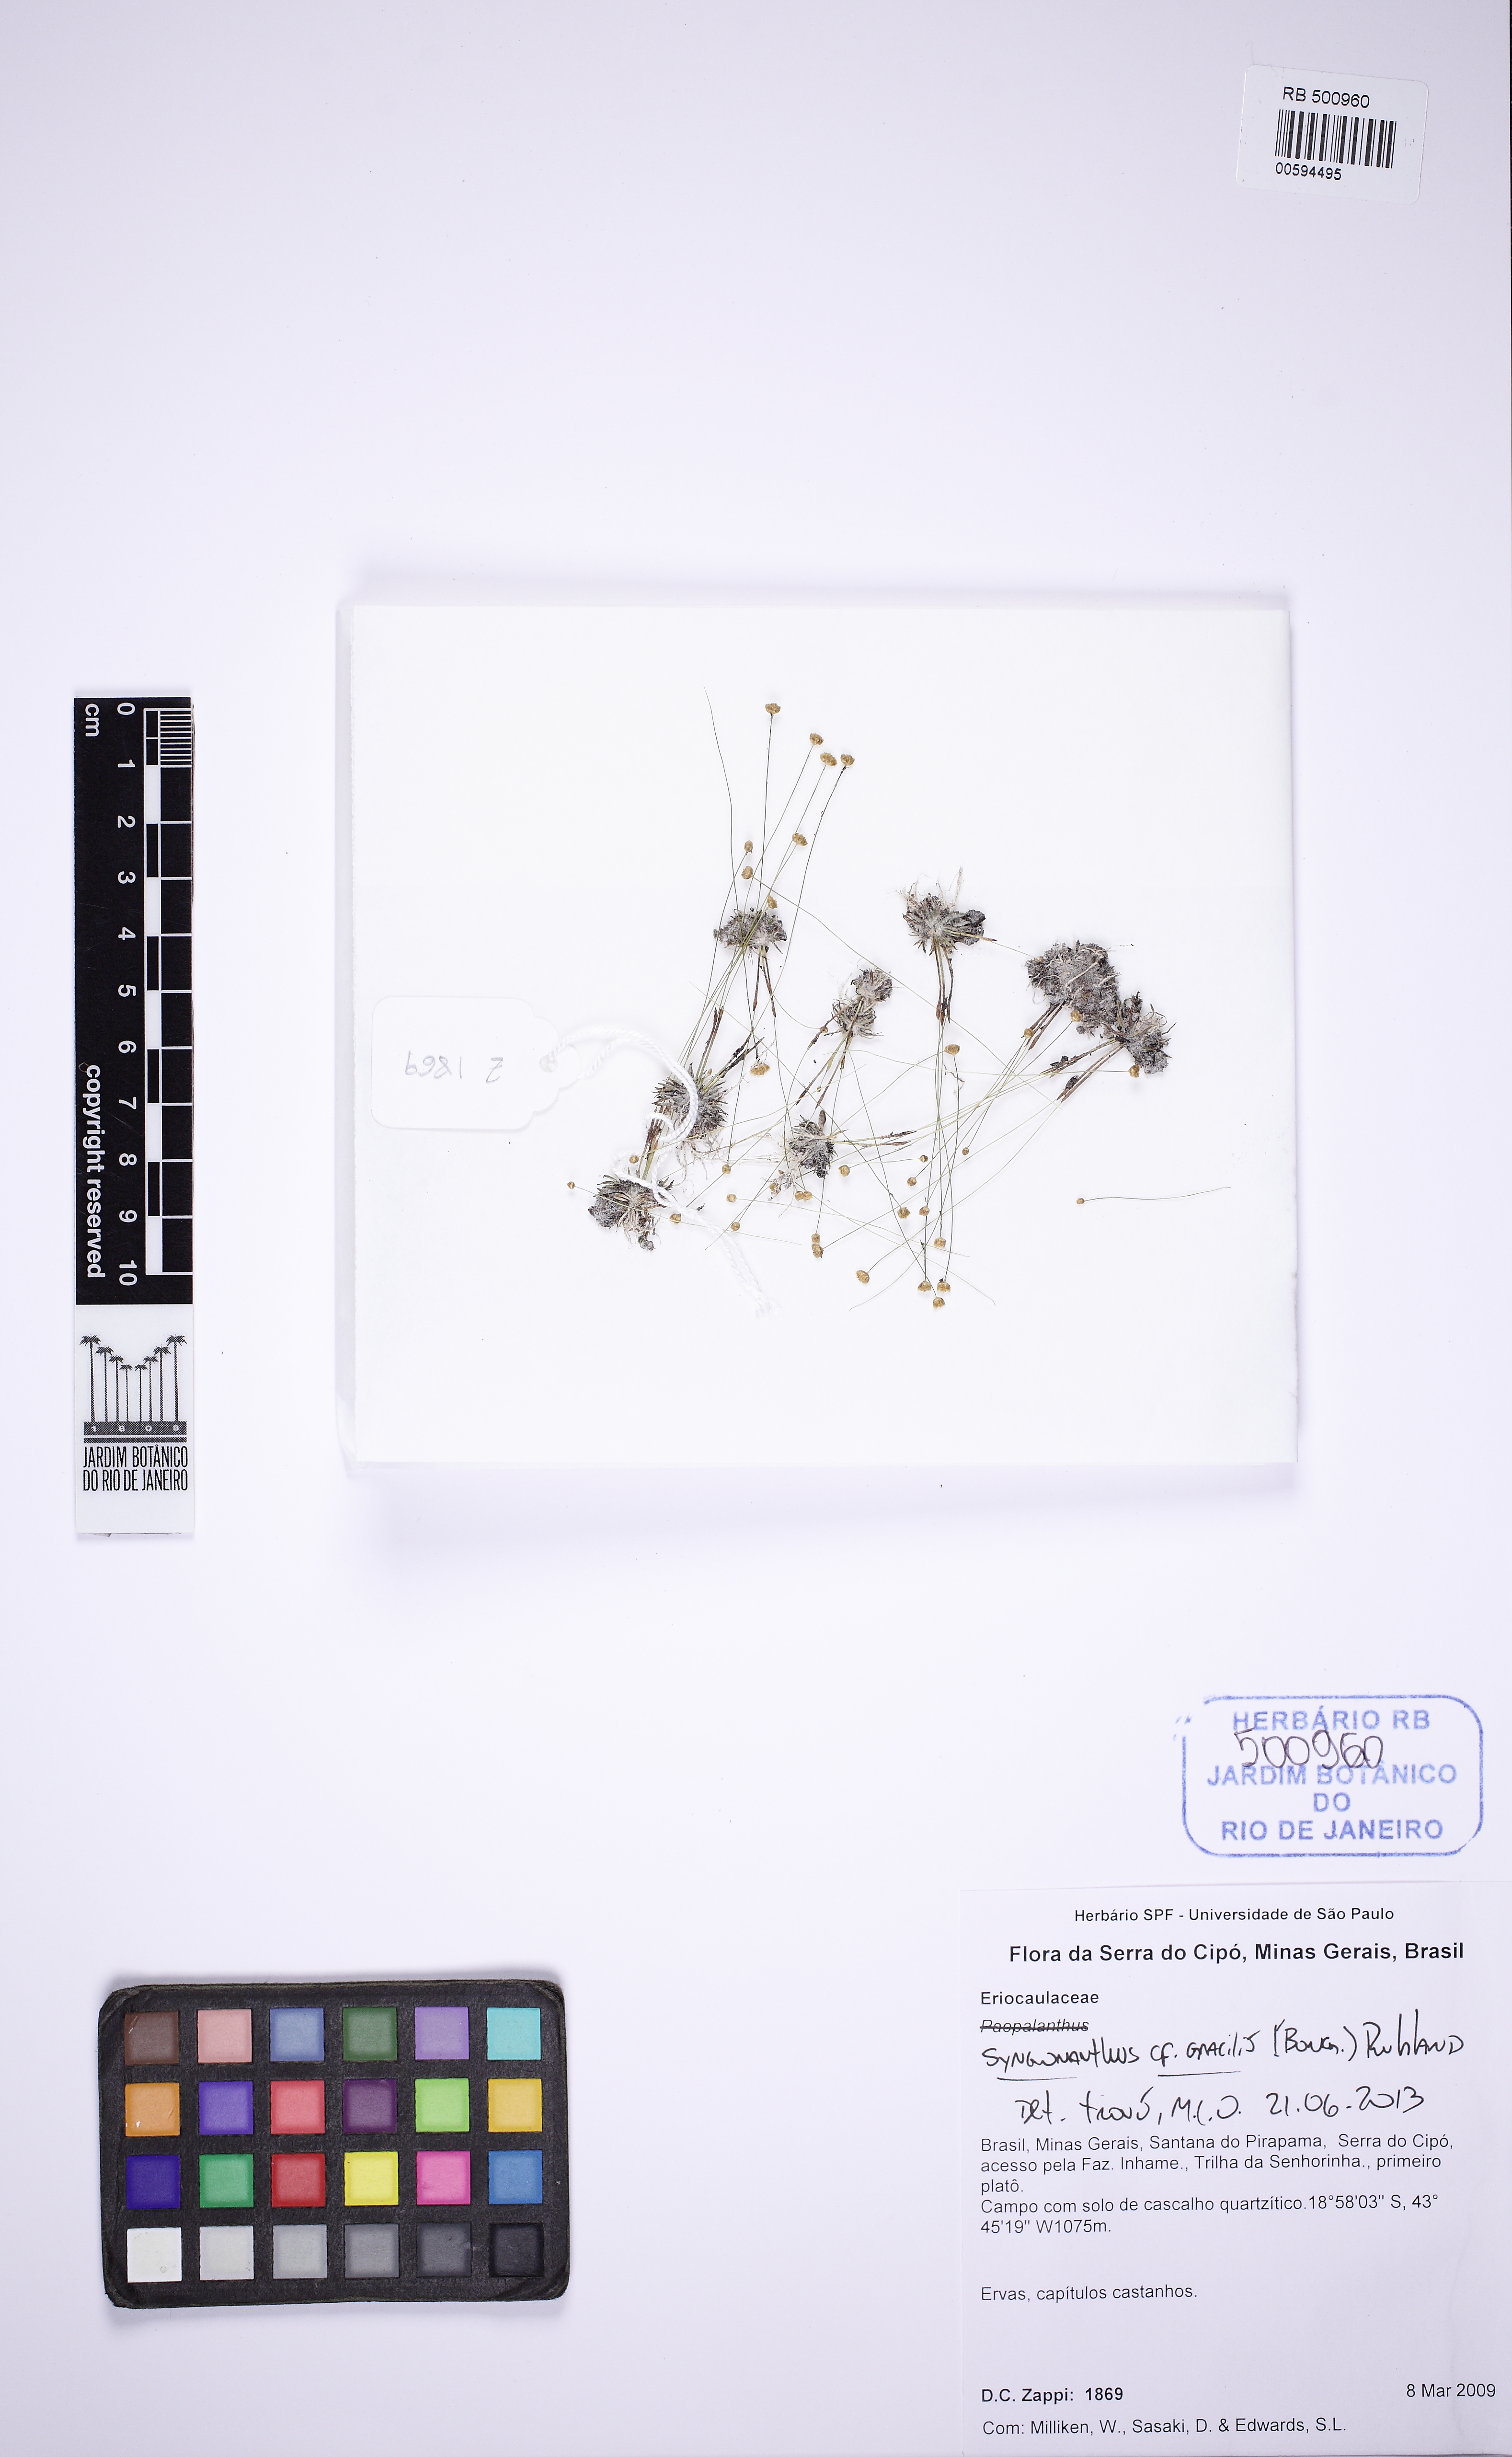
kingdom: Plantae
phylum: Tracheophyta
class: Liliopsida
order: Poales
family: Eriocaulaceae
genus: Syngonanthus
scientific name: Syngonanthus gracilis
